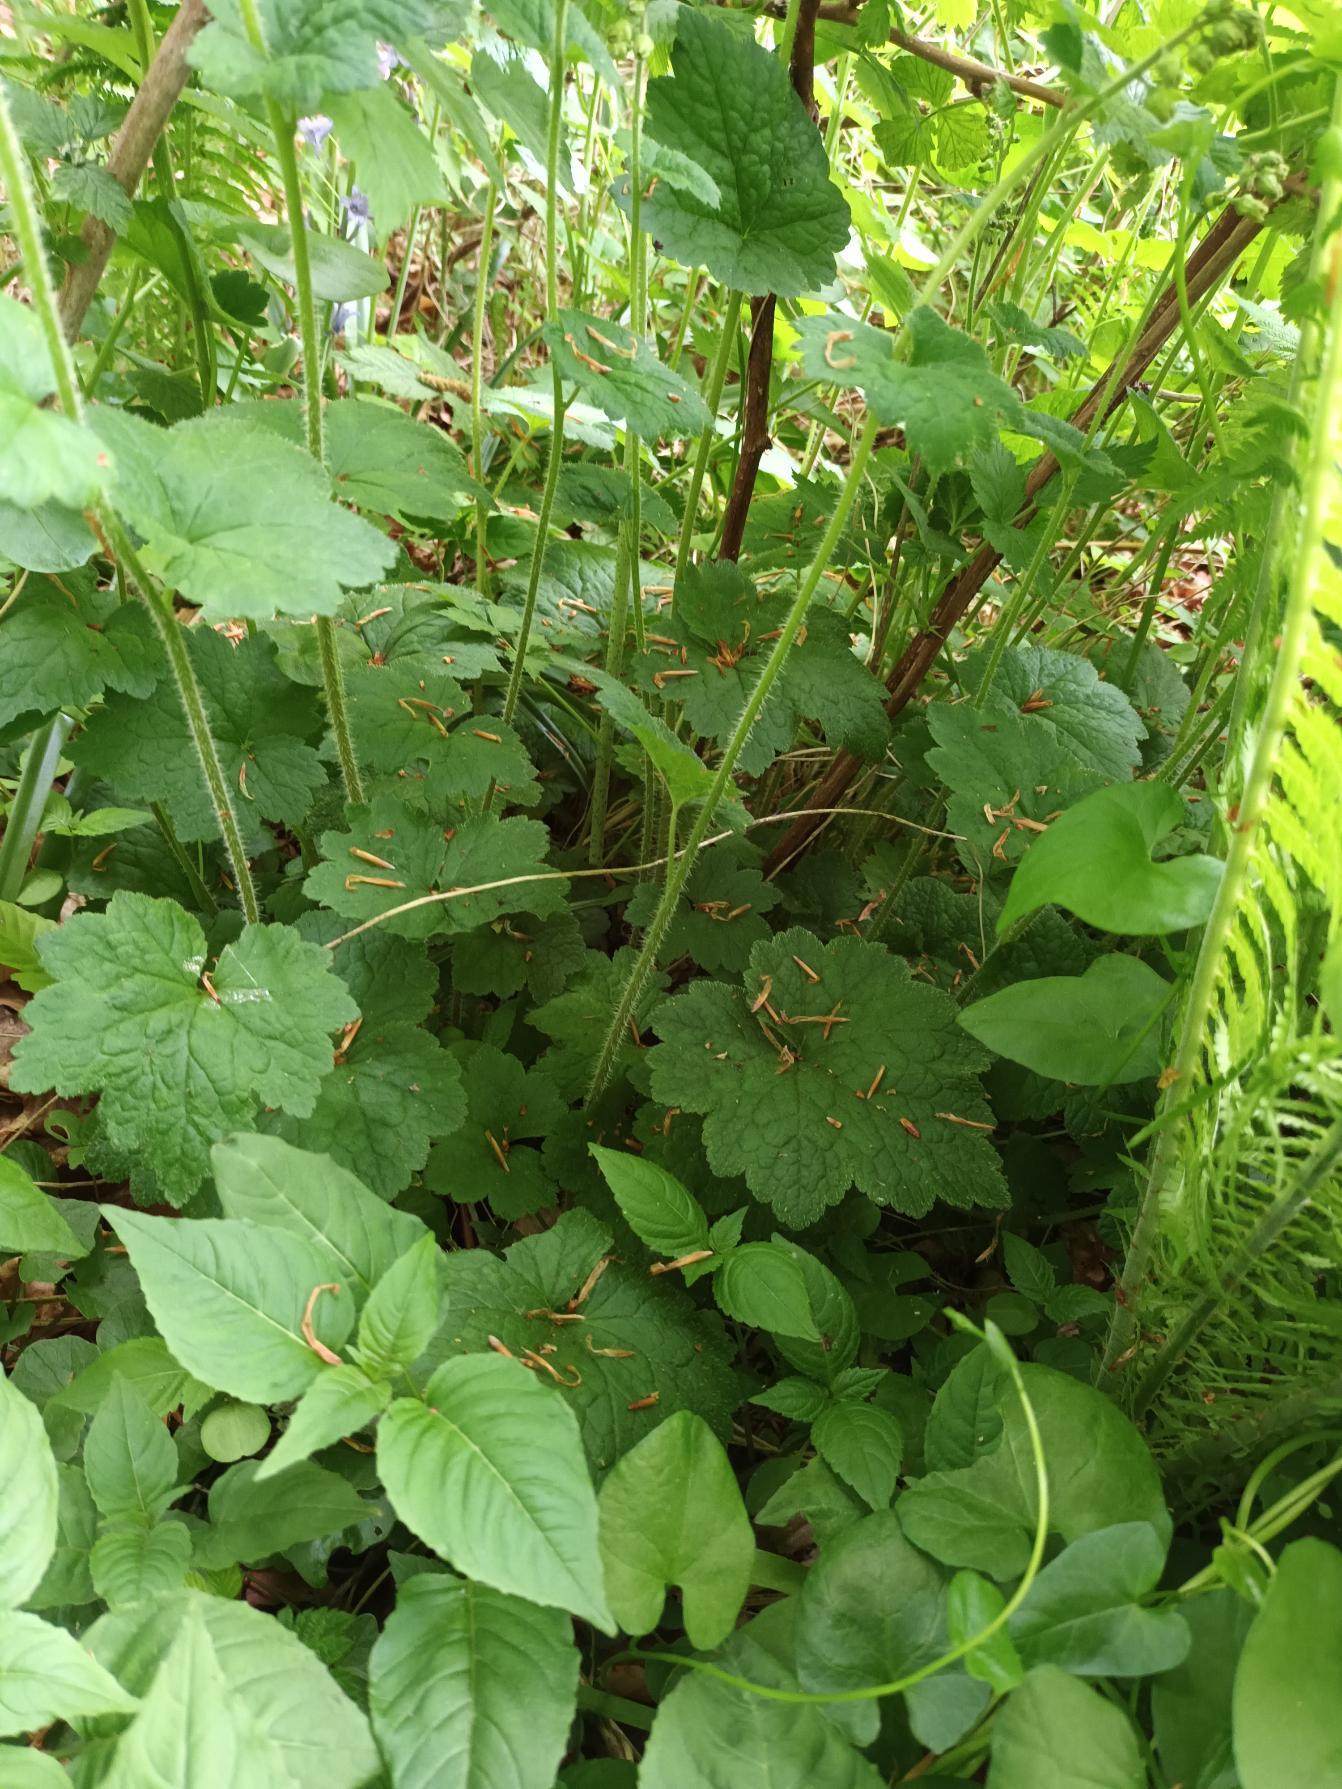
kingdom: Plantae
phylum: Tracheophyta
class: Magnoliopsida
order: Saxifragales
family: Saxifragaceae
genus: Tellima
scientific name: Tellima grandiflora
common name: Biskophat
